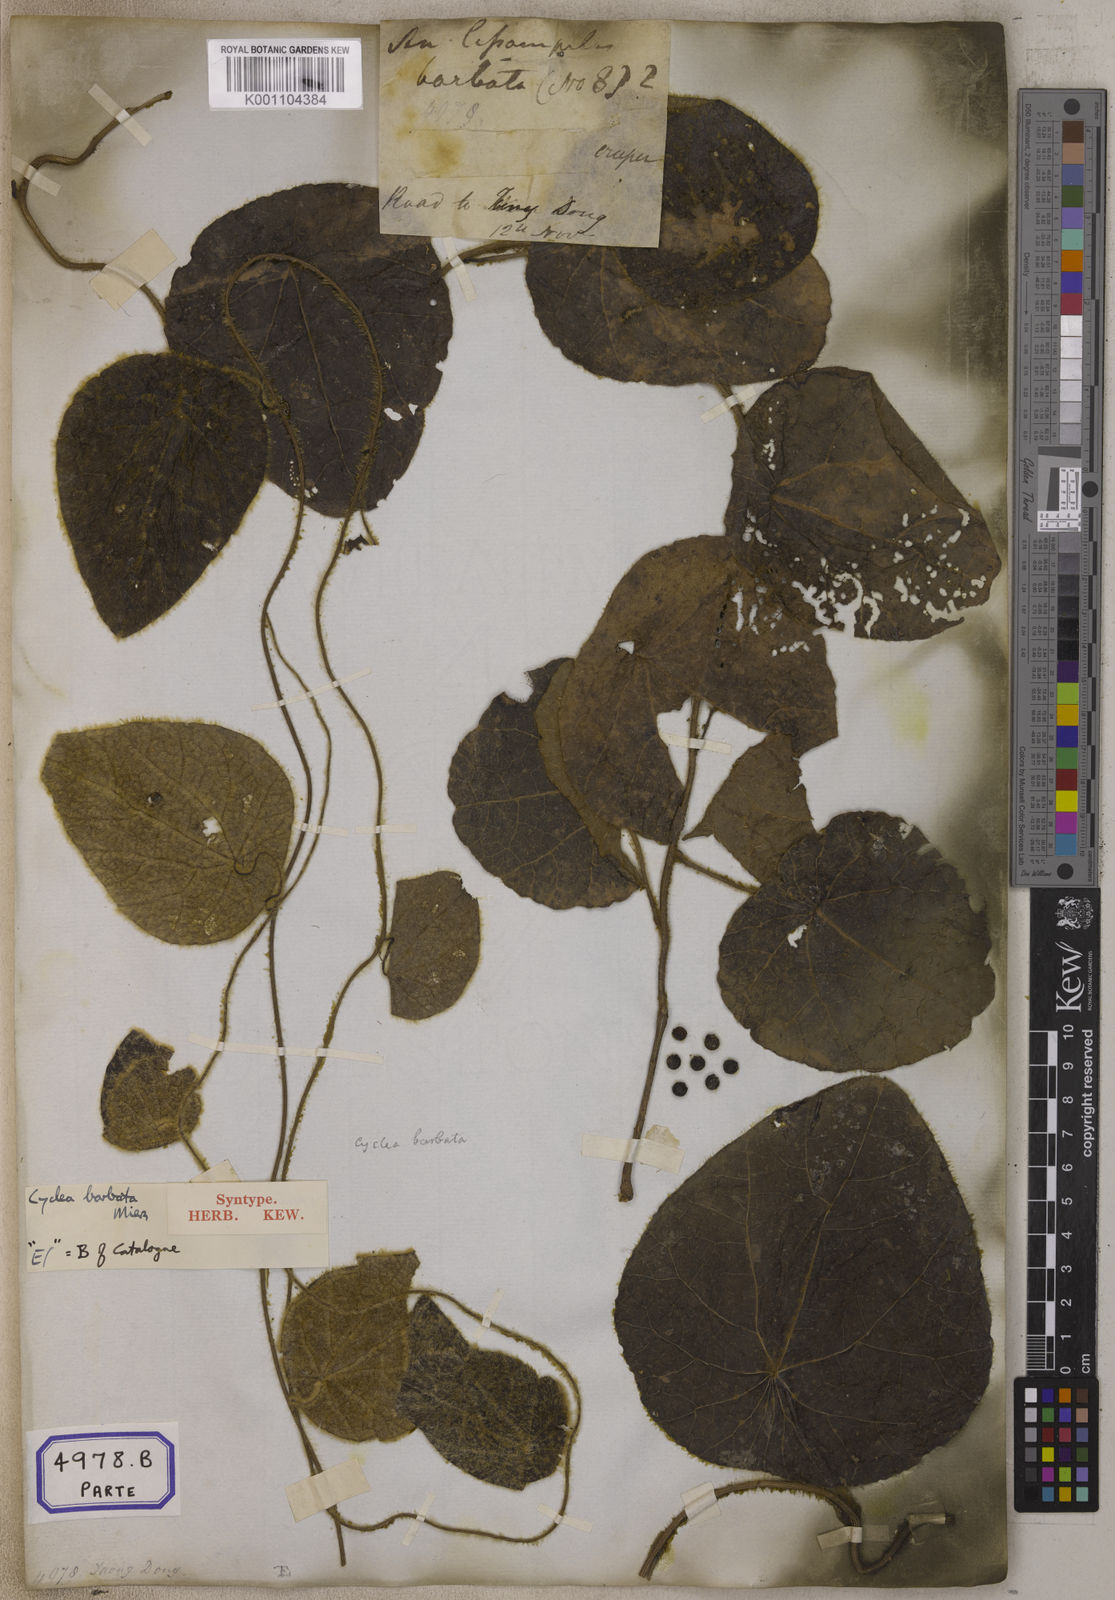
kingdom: Plantae
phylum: Tracheophyta
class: Magnoliopsida
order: Ranunculales
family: Menispermaceae
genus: Cissampelos
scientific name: Cissampelos
